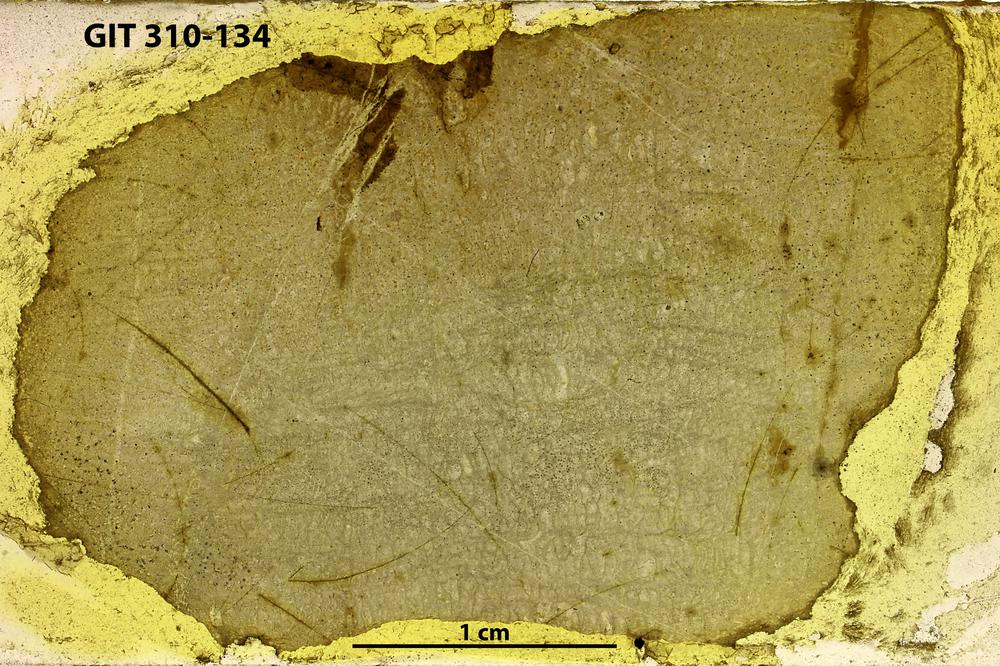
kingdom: Animalia
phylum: Cnidaria
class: Anthozoa
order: Heliolitina
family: Plasmoporellidae
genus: Plasmoporella
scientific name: Plasmoporella
